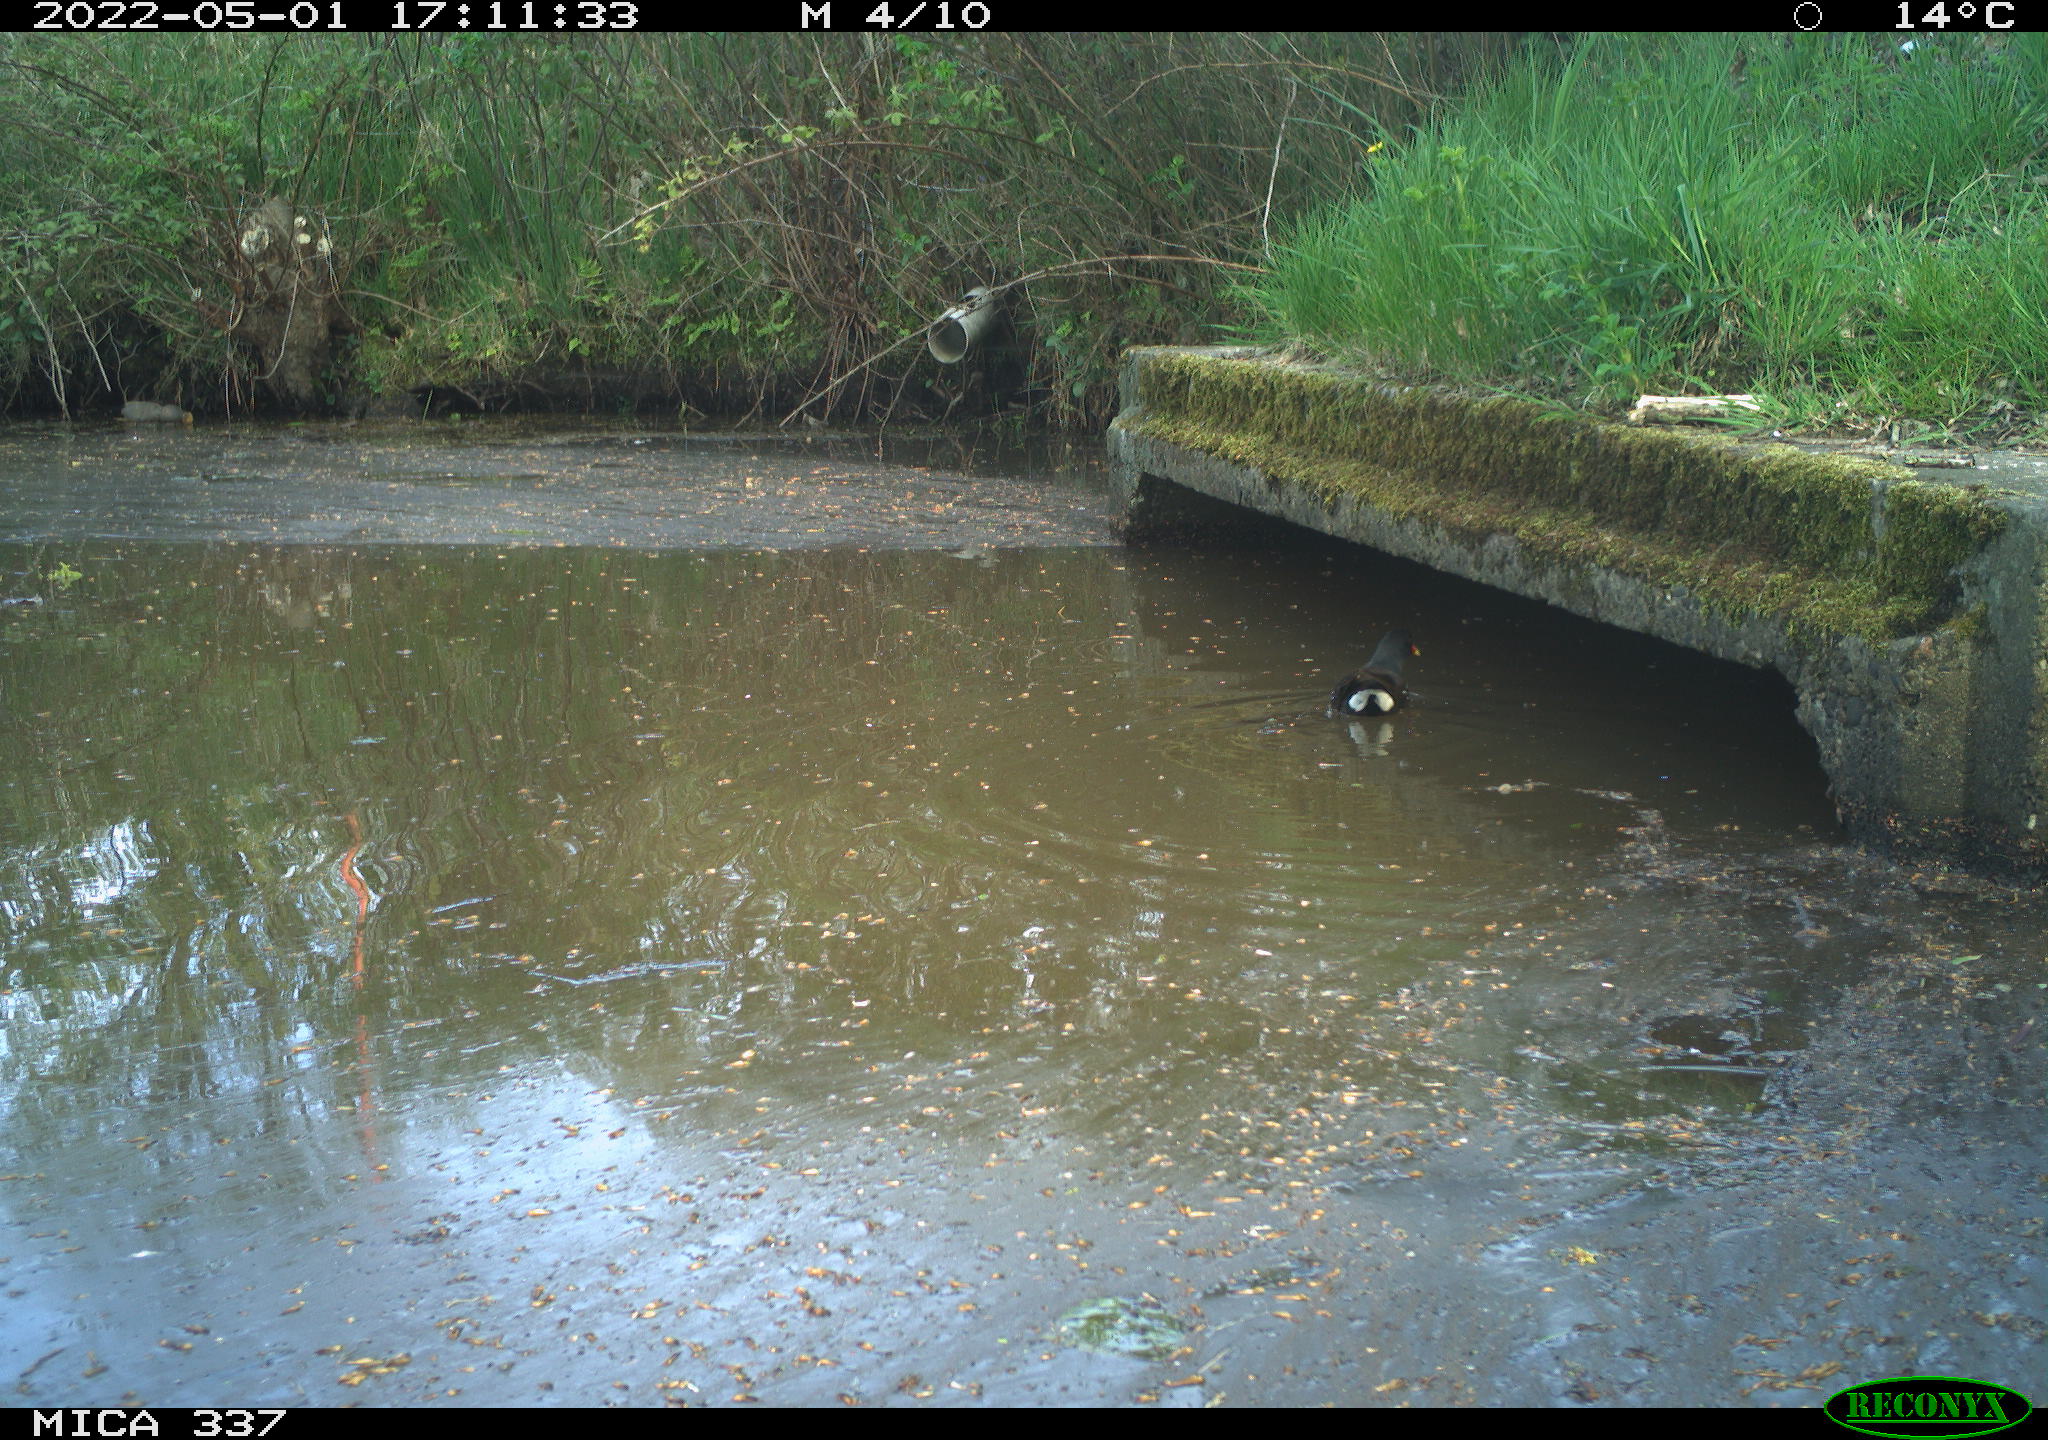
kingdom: Animalia
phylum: Chordata
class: Aves
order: Gruiformes
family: Rallidae
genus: Gallinula
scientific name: Gallinula chloropus
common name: Common moorhen
